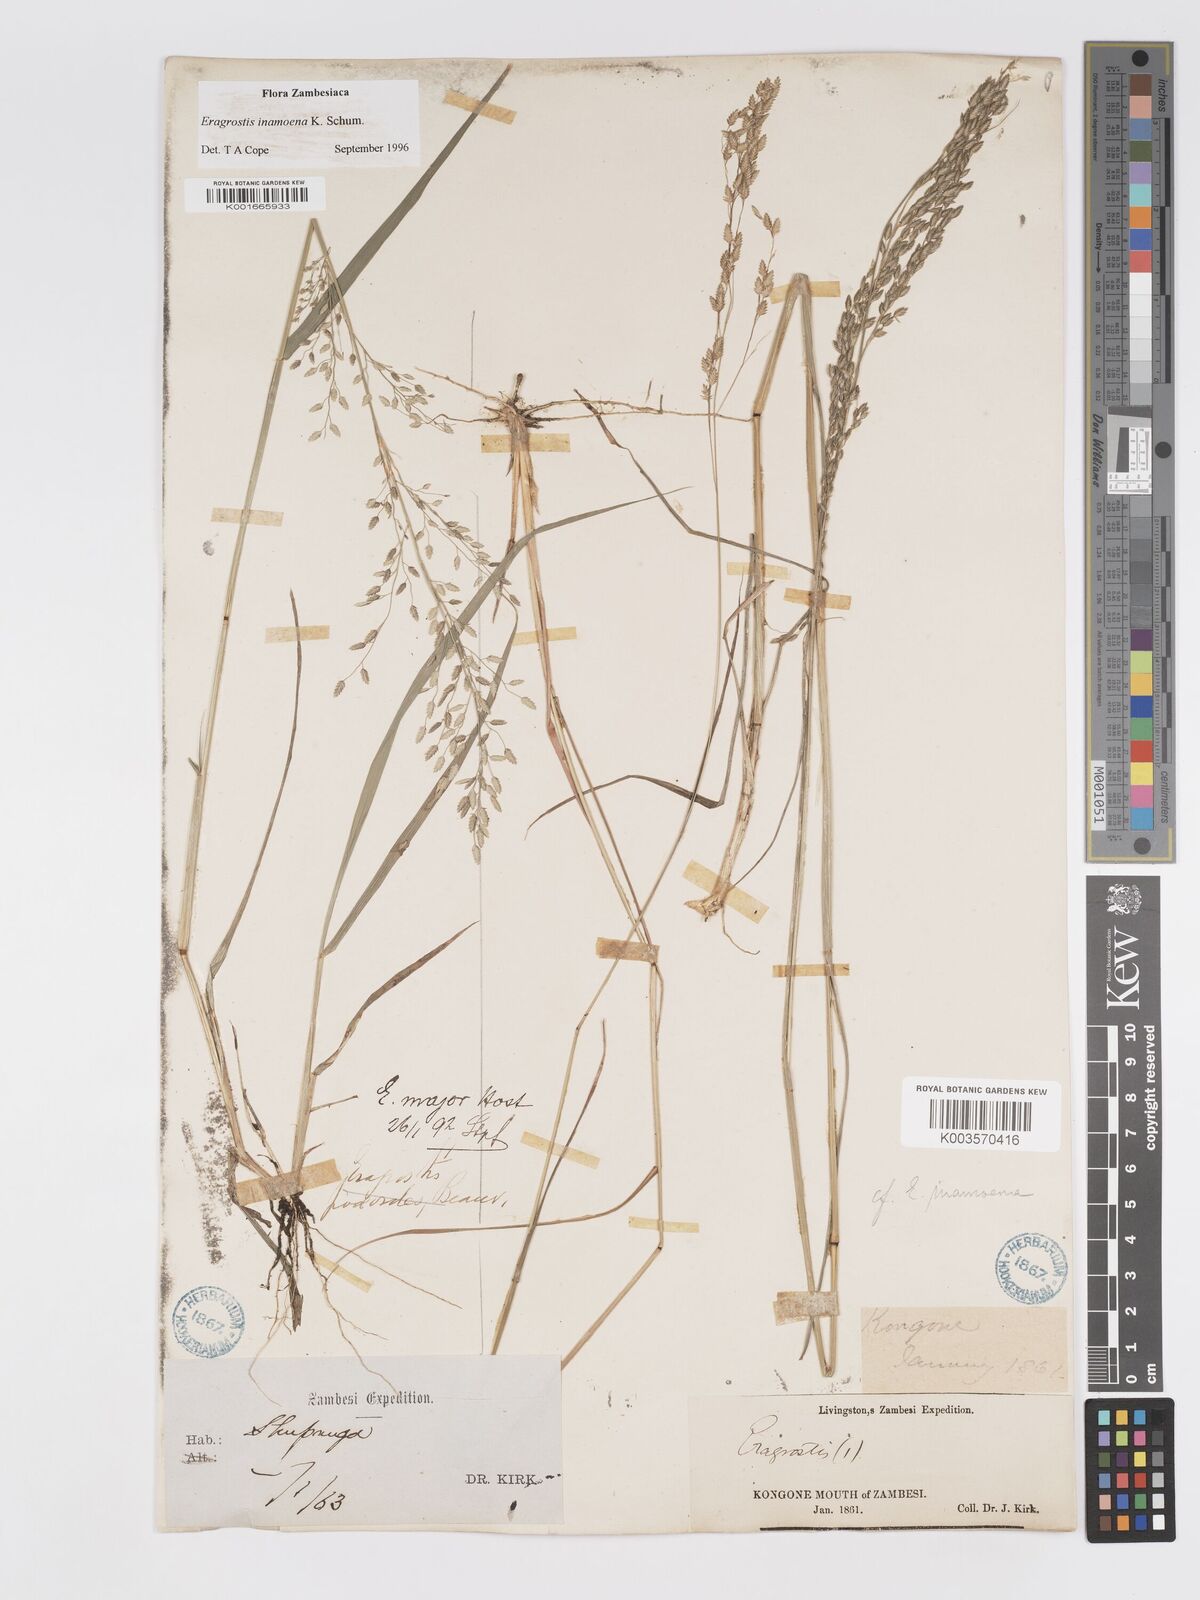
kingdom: Plantae
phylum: Tracheophyta
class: Liliopsida
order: Poales
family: Poaceae
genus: Eragrostis
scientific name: Eragrostis inamoena
